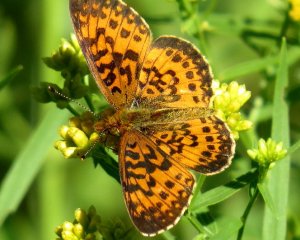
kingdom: Animalia
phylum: Arthropoda
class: Insecta
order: Lepidoptera
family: Nymphalidae
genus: Boloria
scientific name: Boloria selene
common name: Silver-bordered Fritillary
